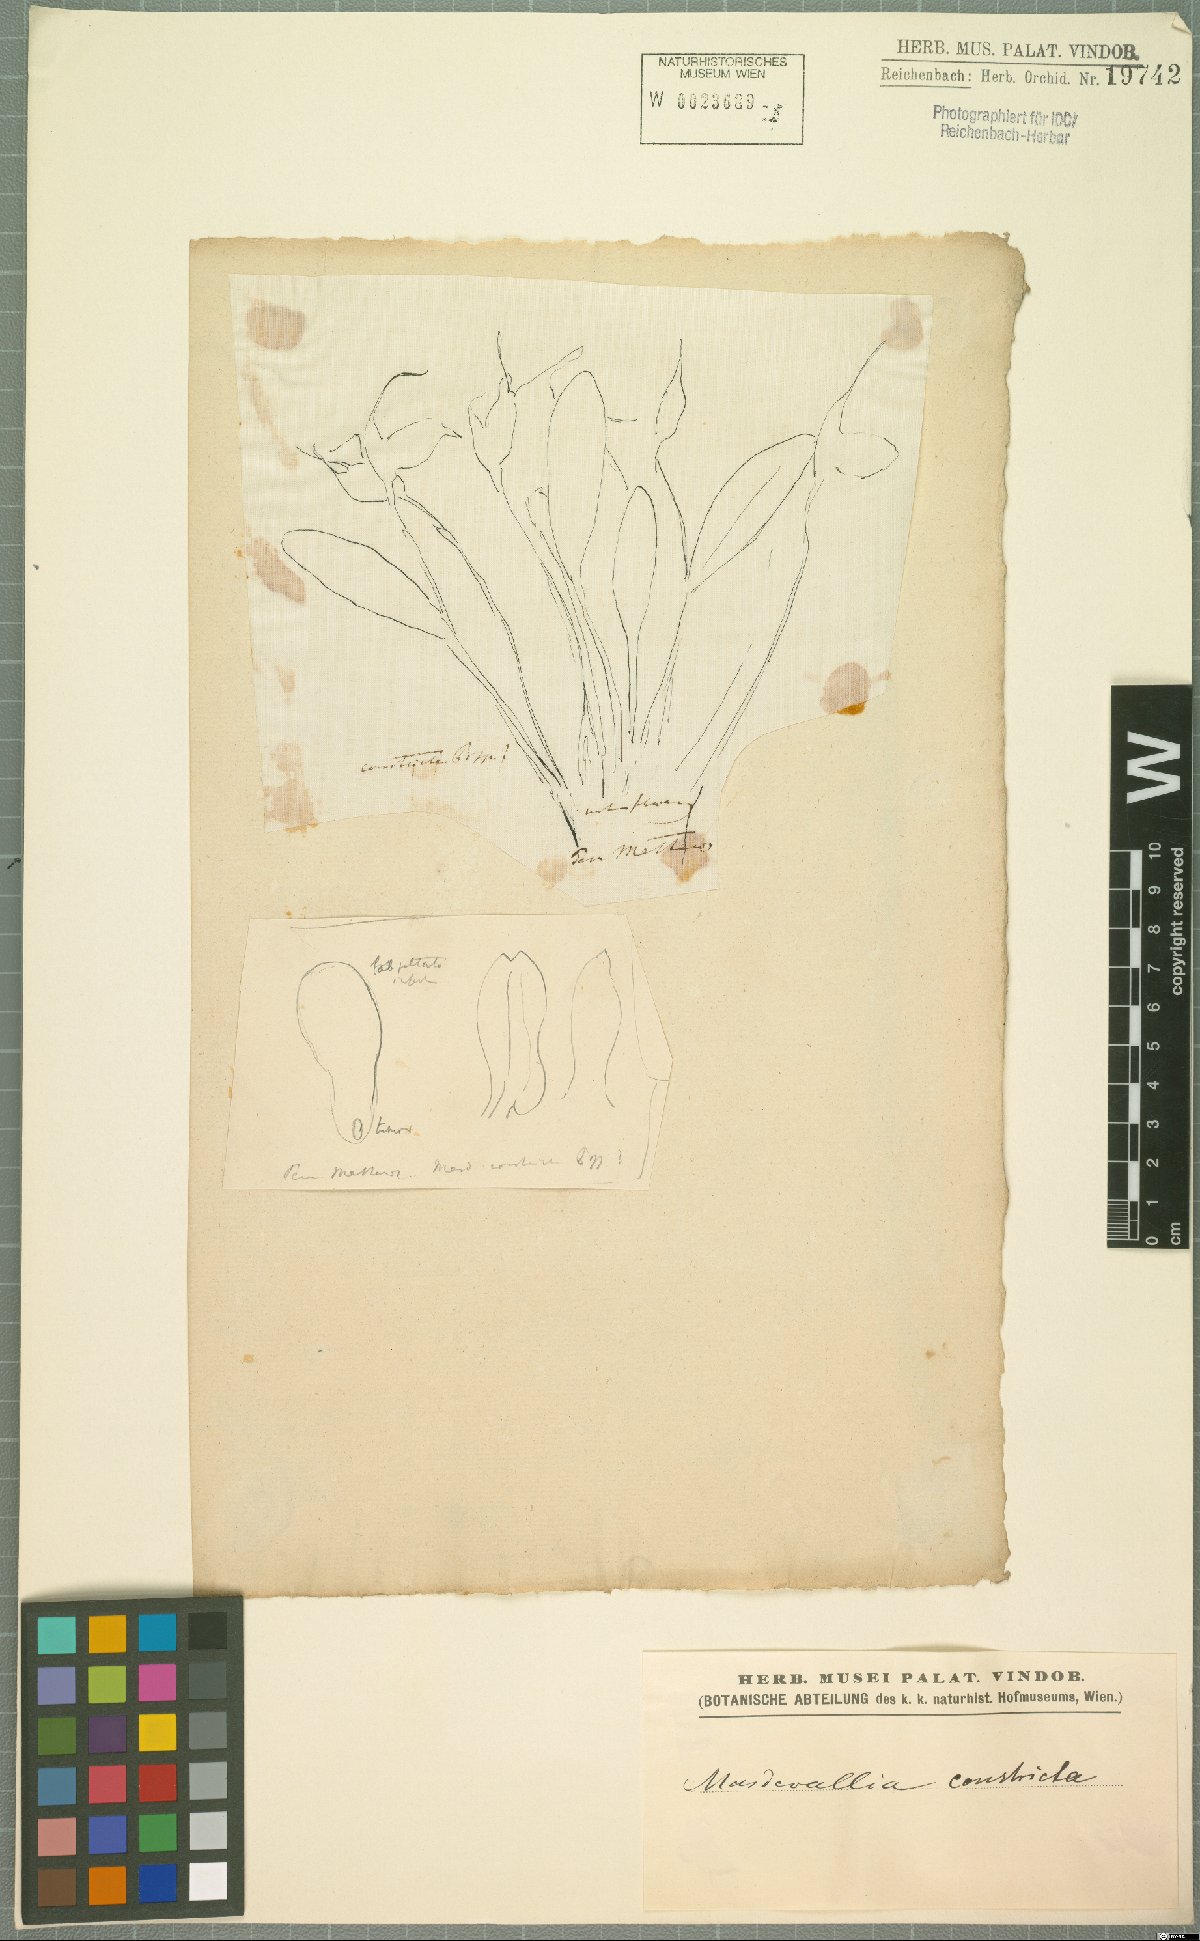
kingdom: Plantae
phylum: Tracheophyta
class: Liliopsida
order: Asparagales
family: Orchidaceae
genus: Masdevallia
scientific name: Masdevallia constricta
